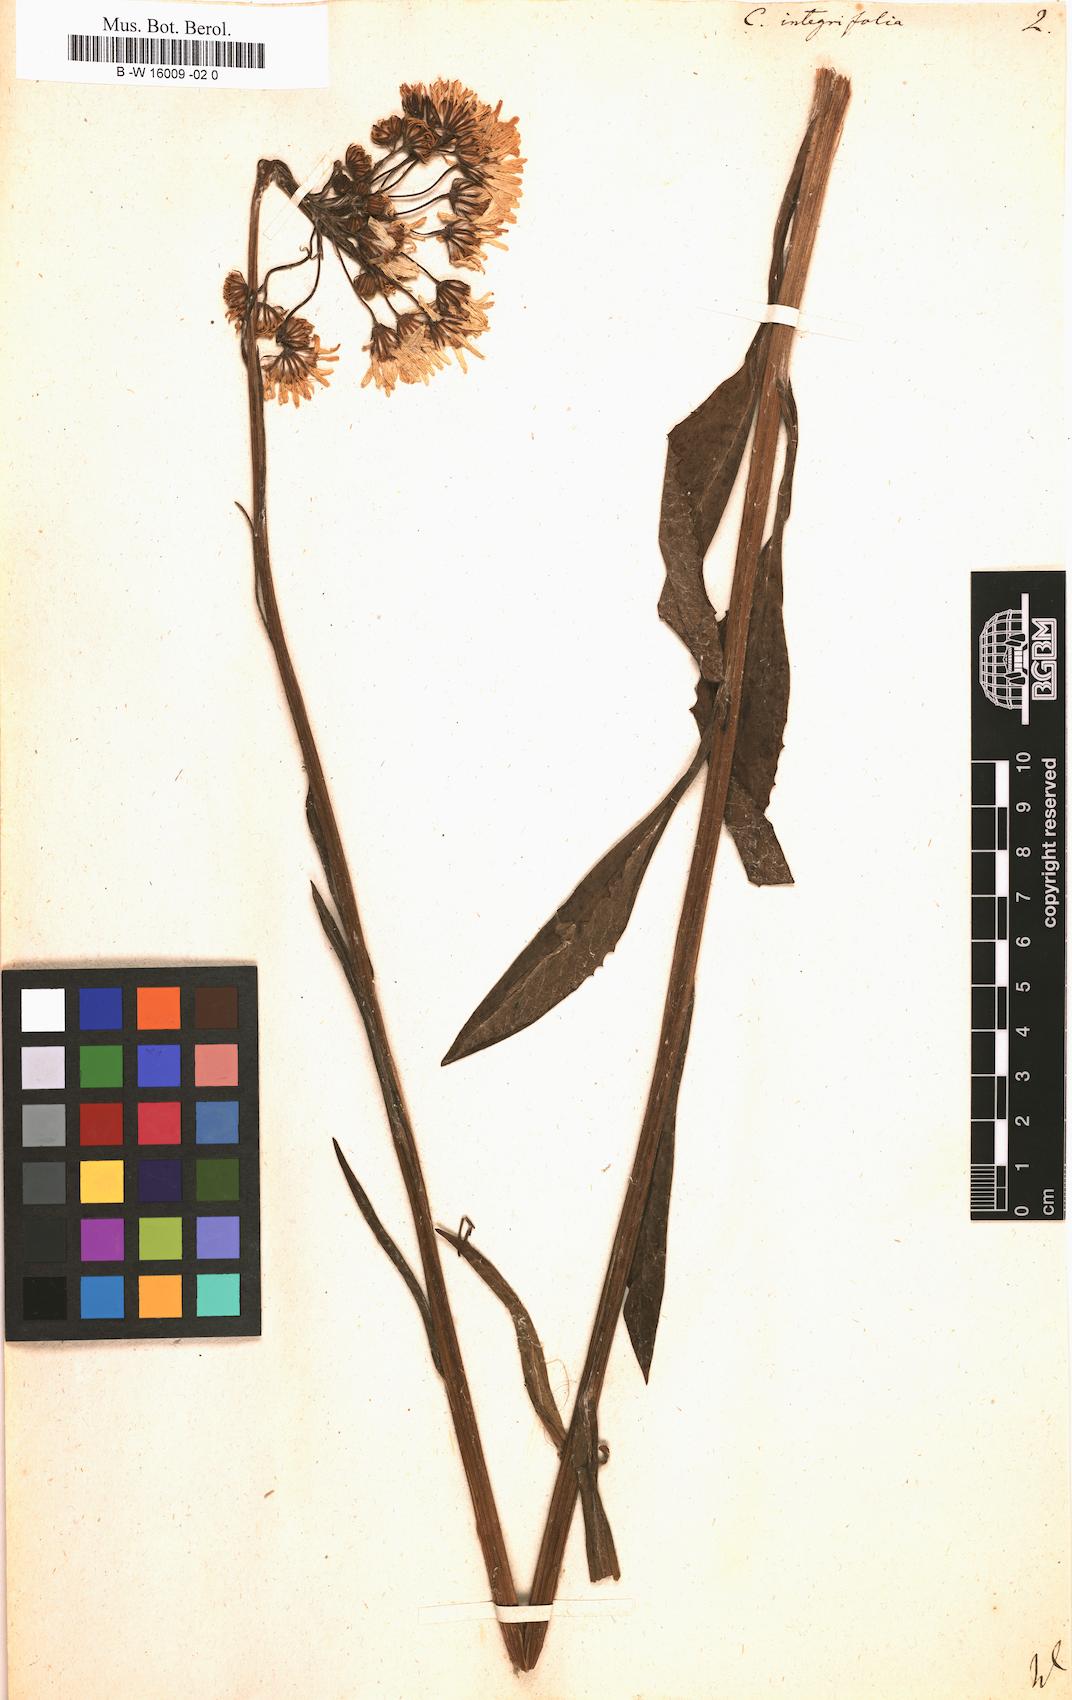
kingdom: Plantae
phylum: Tracheophyta
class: Magnoliopsida
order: Asterales
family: Asteraceae
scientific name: Asteraceae
